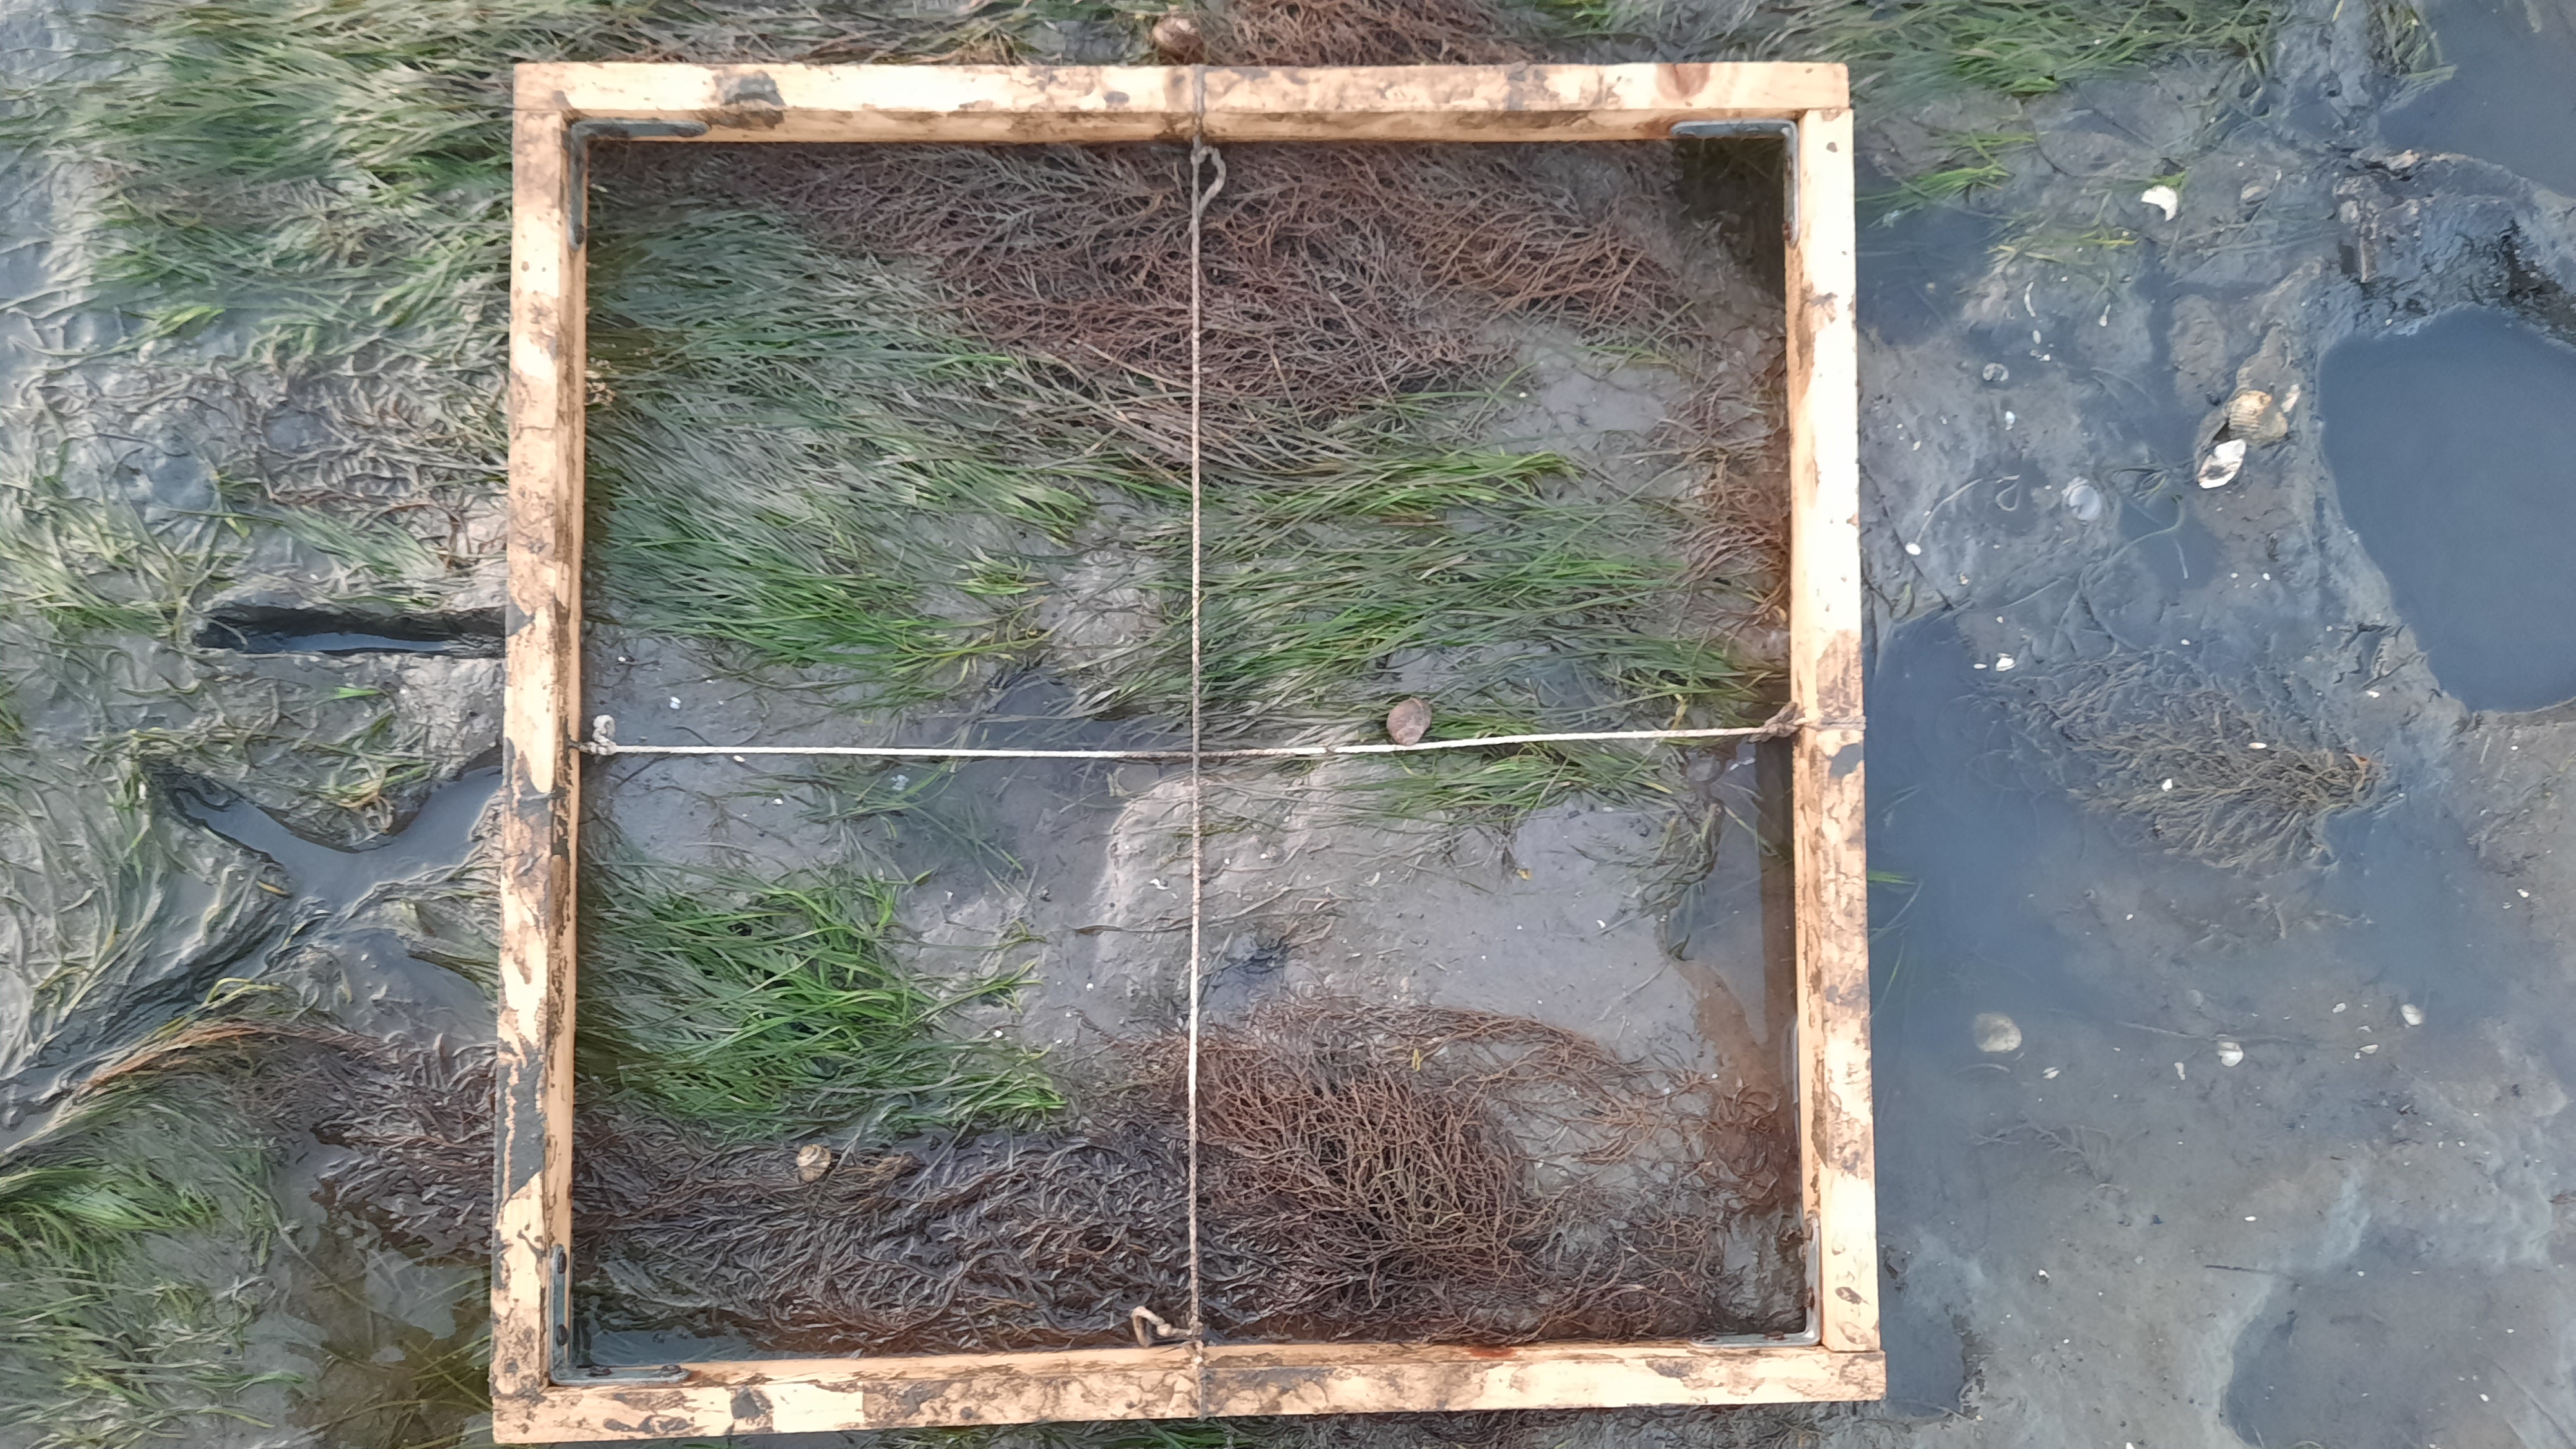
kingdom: Plantae
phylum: Tracheophyta
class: Liliopsida
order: Alismatales
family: Zosteraceae
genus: Zostera
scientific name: Zostera noltii
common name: Dwarf eelgrass
